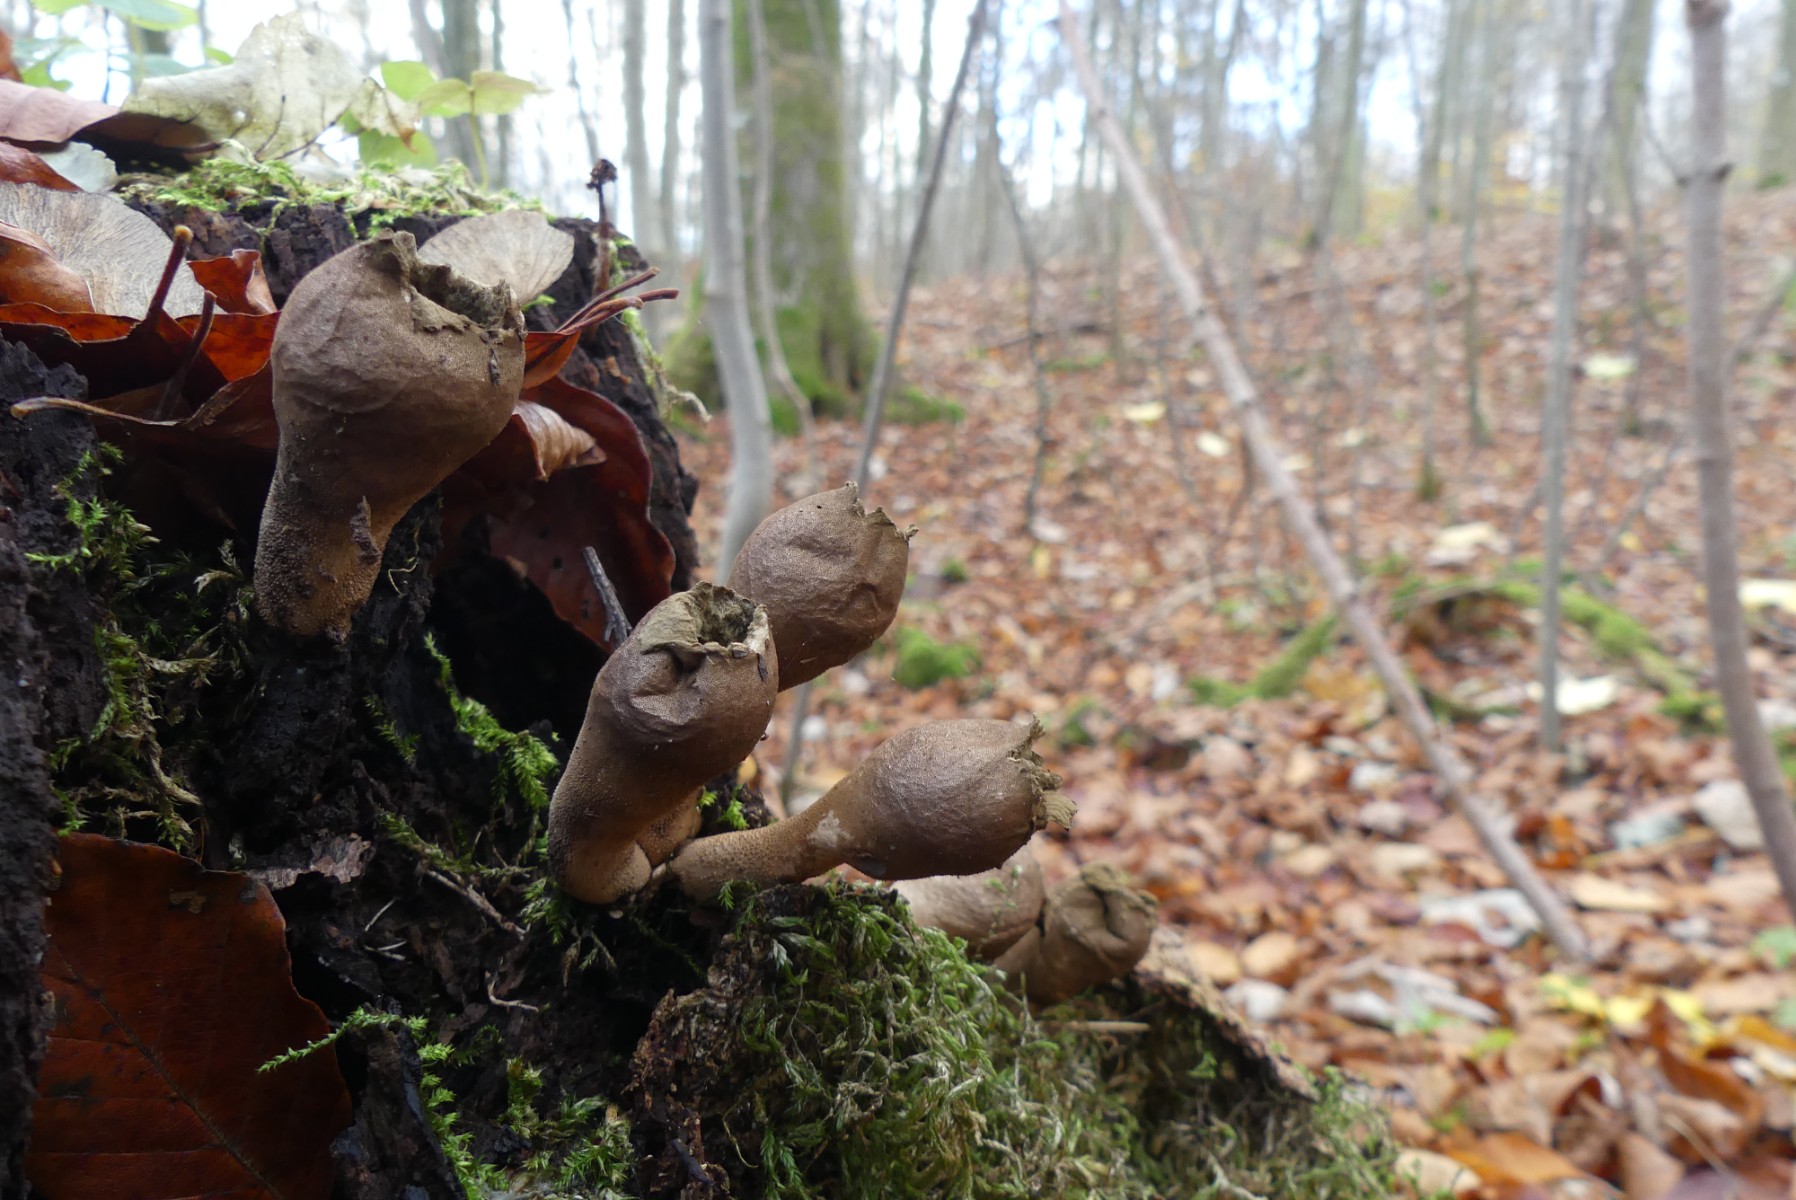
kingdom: Fungi
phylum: Basidiomycota
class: Agaricomycetes
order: Agaricales
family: Lycoperdaceae
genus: Apioperdon
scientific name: Apioperdon pyriforme
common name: pære-støvbold
